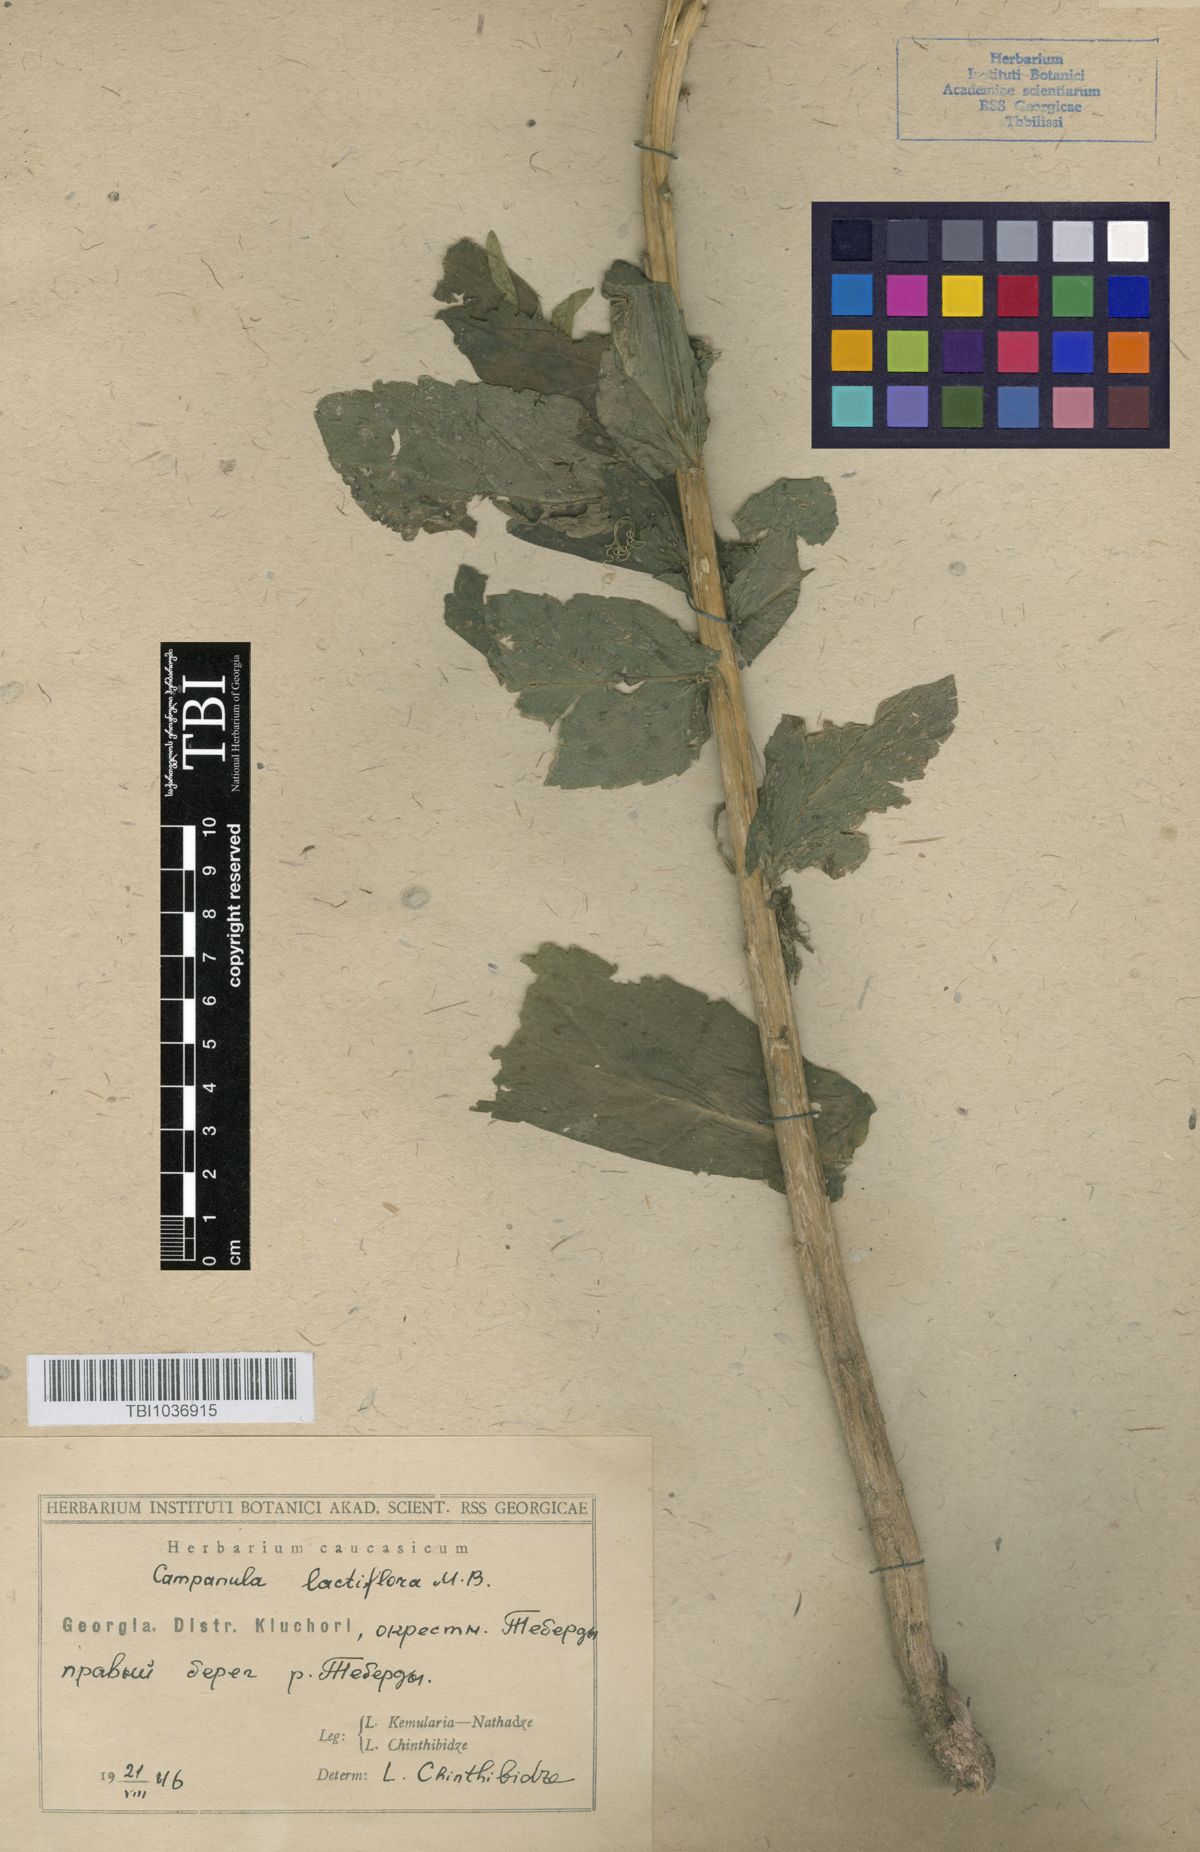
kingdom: Plantae
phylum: Tracheophyta
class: Magnoliopsida
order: Asterales
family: Campanulaceae
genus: Campanula
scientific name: Campanula lactiflora
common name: Milky bellflower
